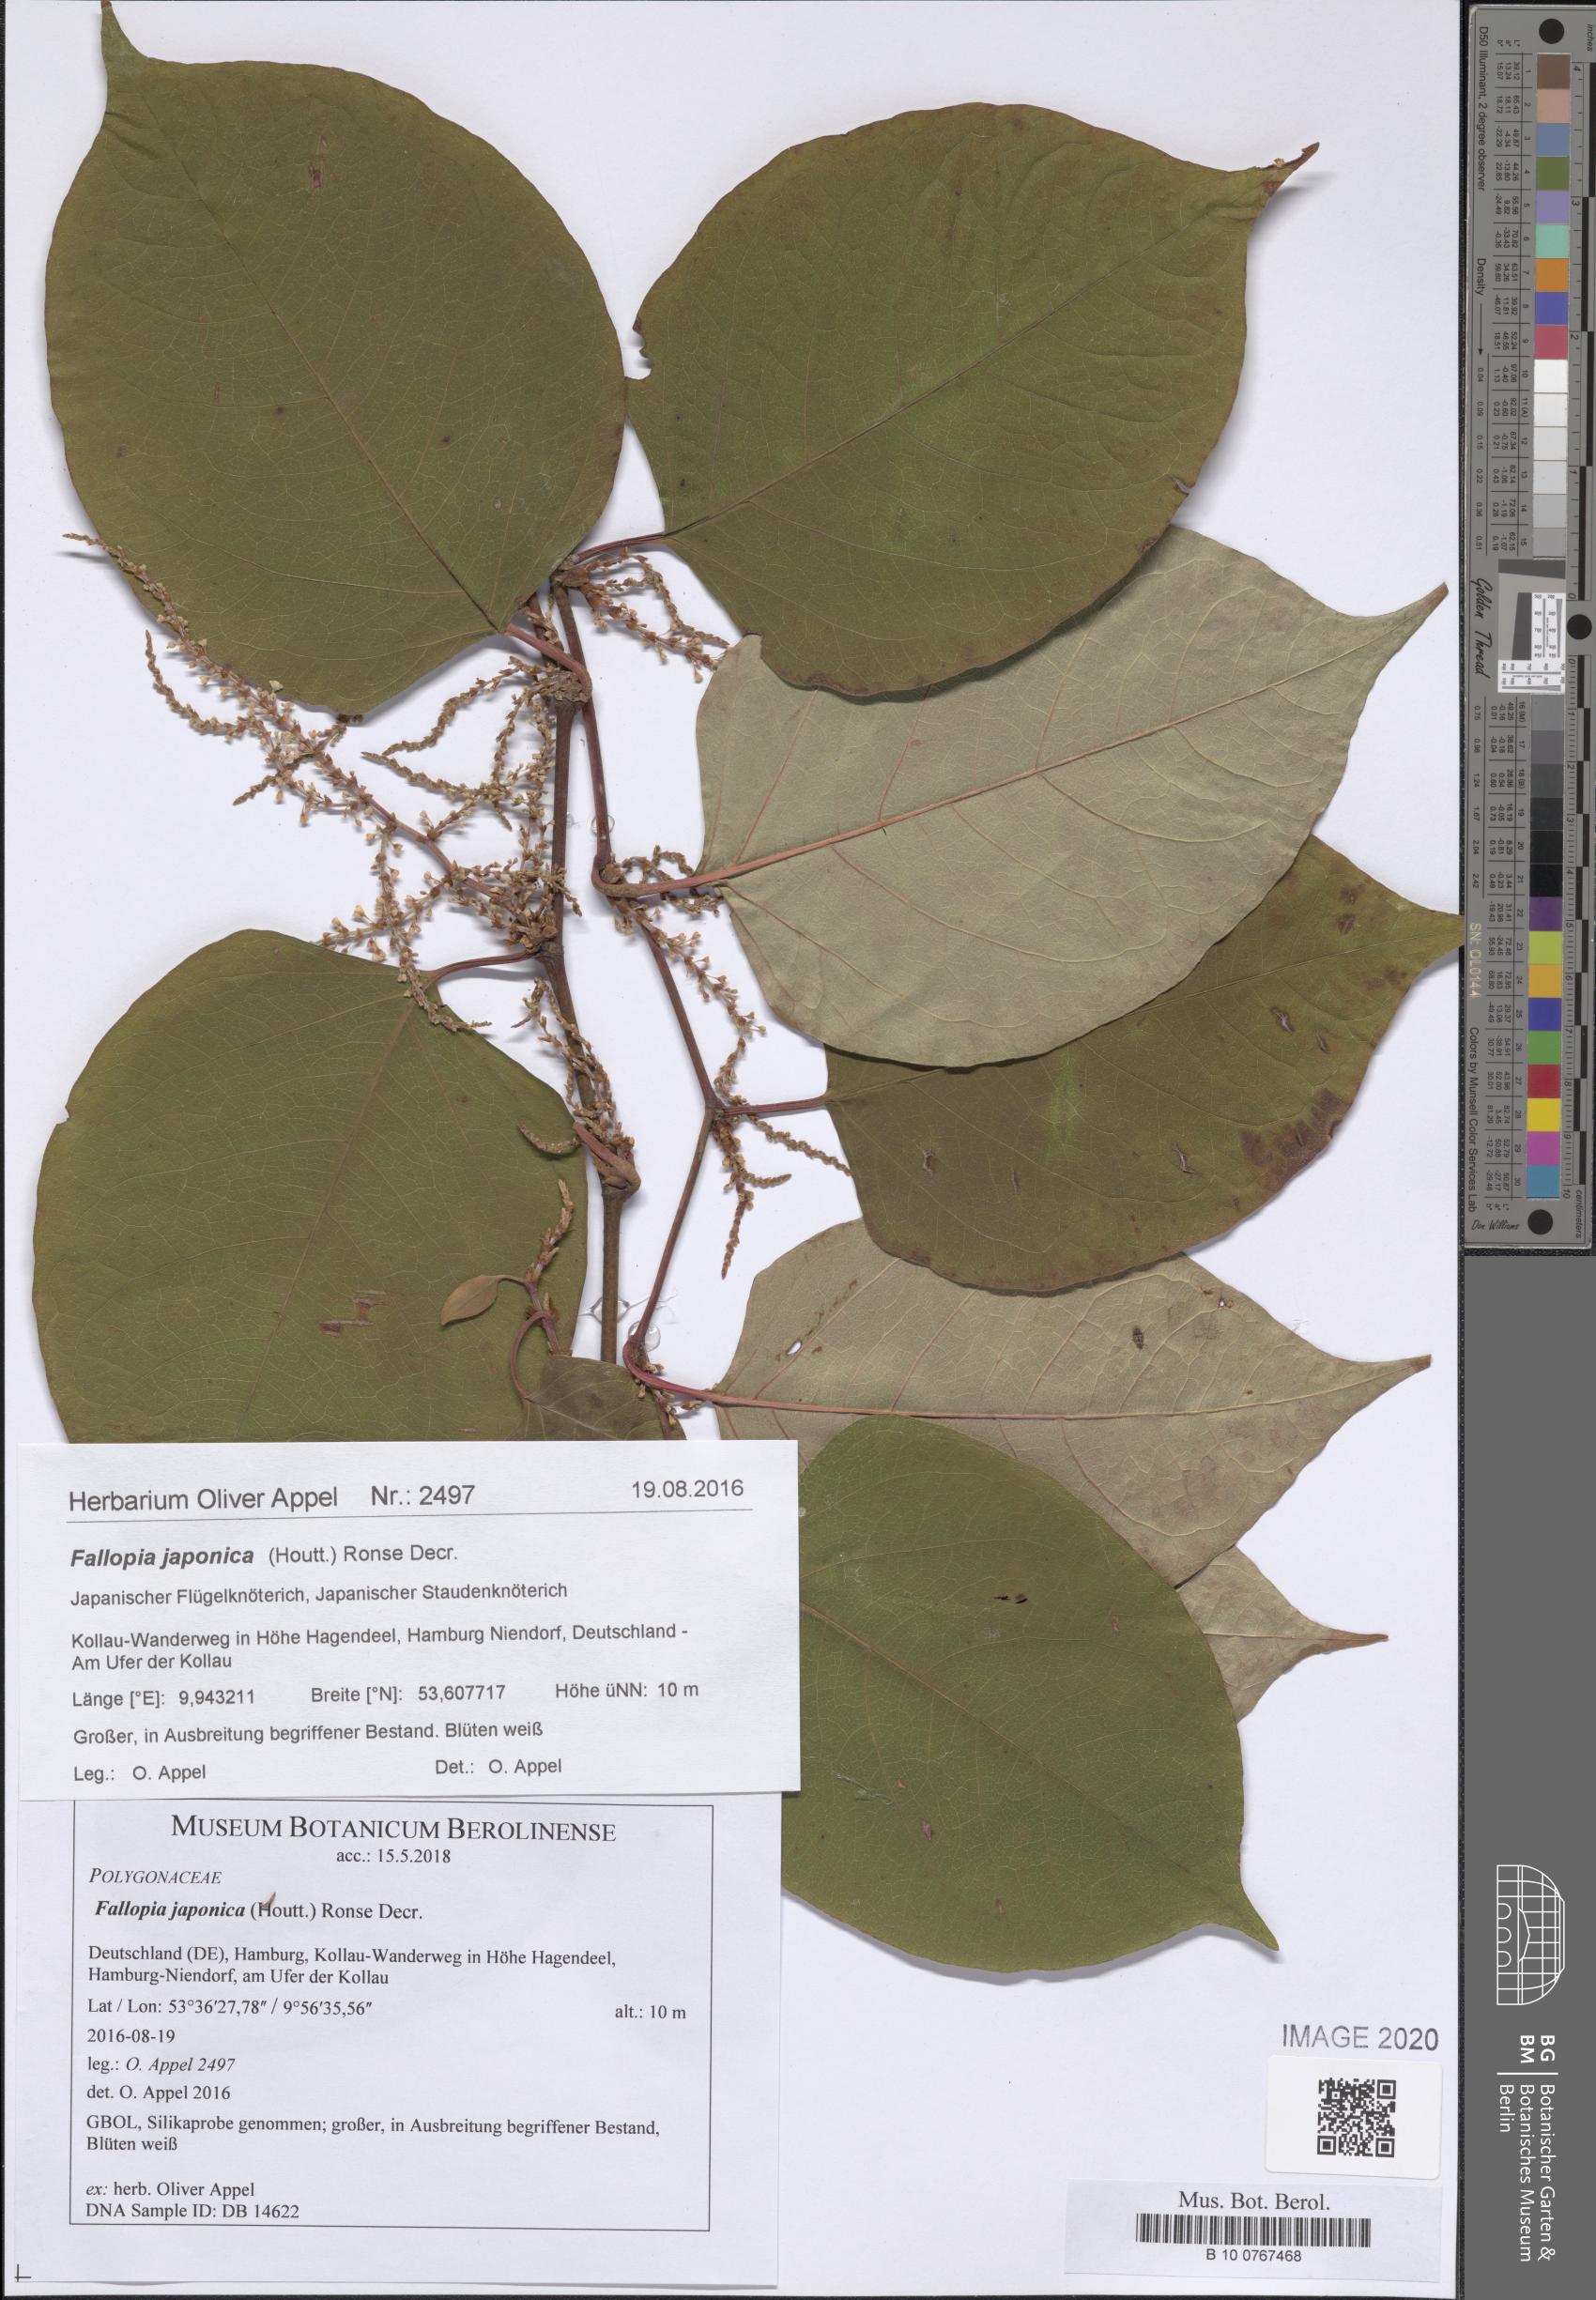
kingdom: Plantae
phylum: Tracheophyta
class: Magnoliopsida
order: Caryophyllales
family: Polygonaceae
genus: Reynoutria
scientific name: Reynoutria japonica
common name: Japanese knotweed
